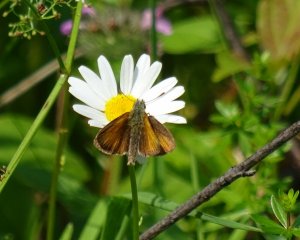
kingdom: Animalia
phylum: Arthropoda
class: Insecta
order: Lepidoptera
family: Hesperiidae
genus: Thymelicus
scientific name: Thymelicus lineola
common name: European Skipper
